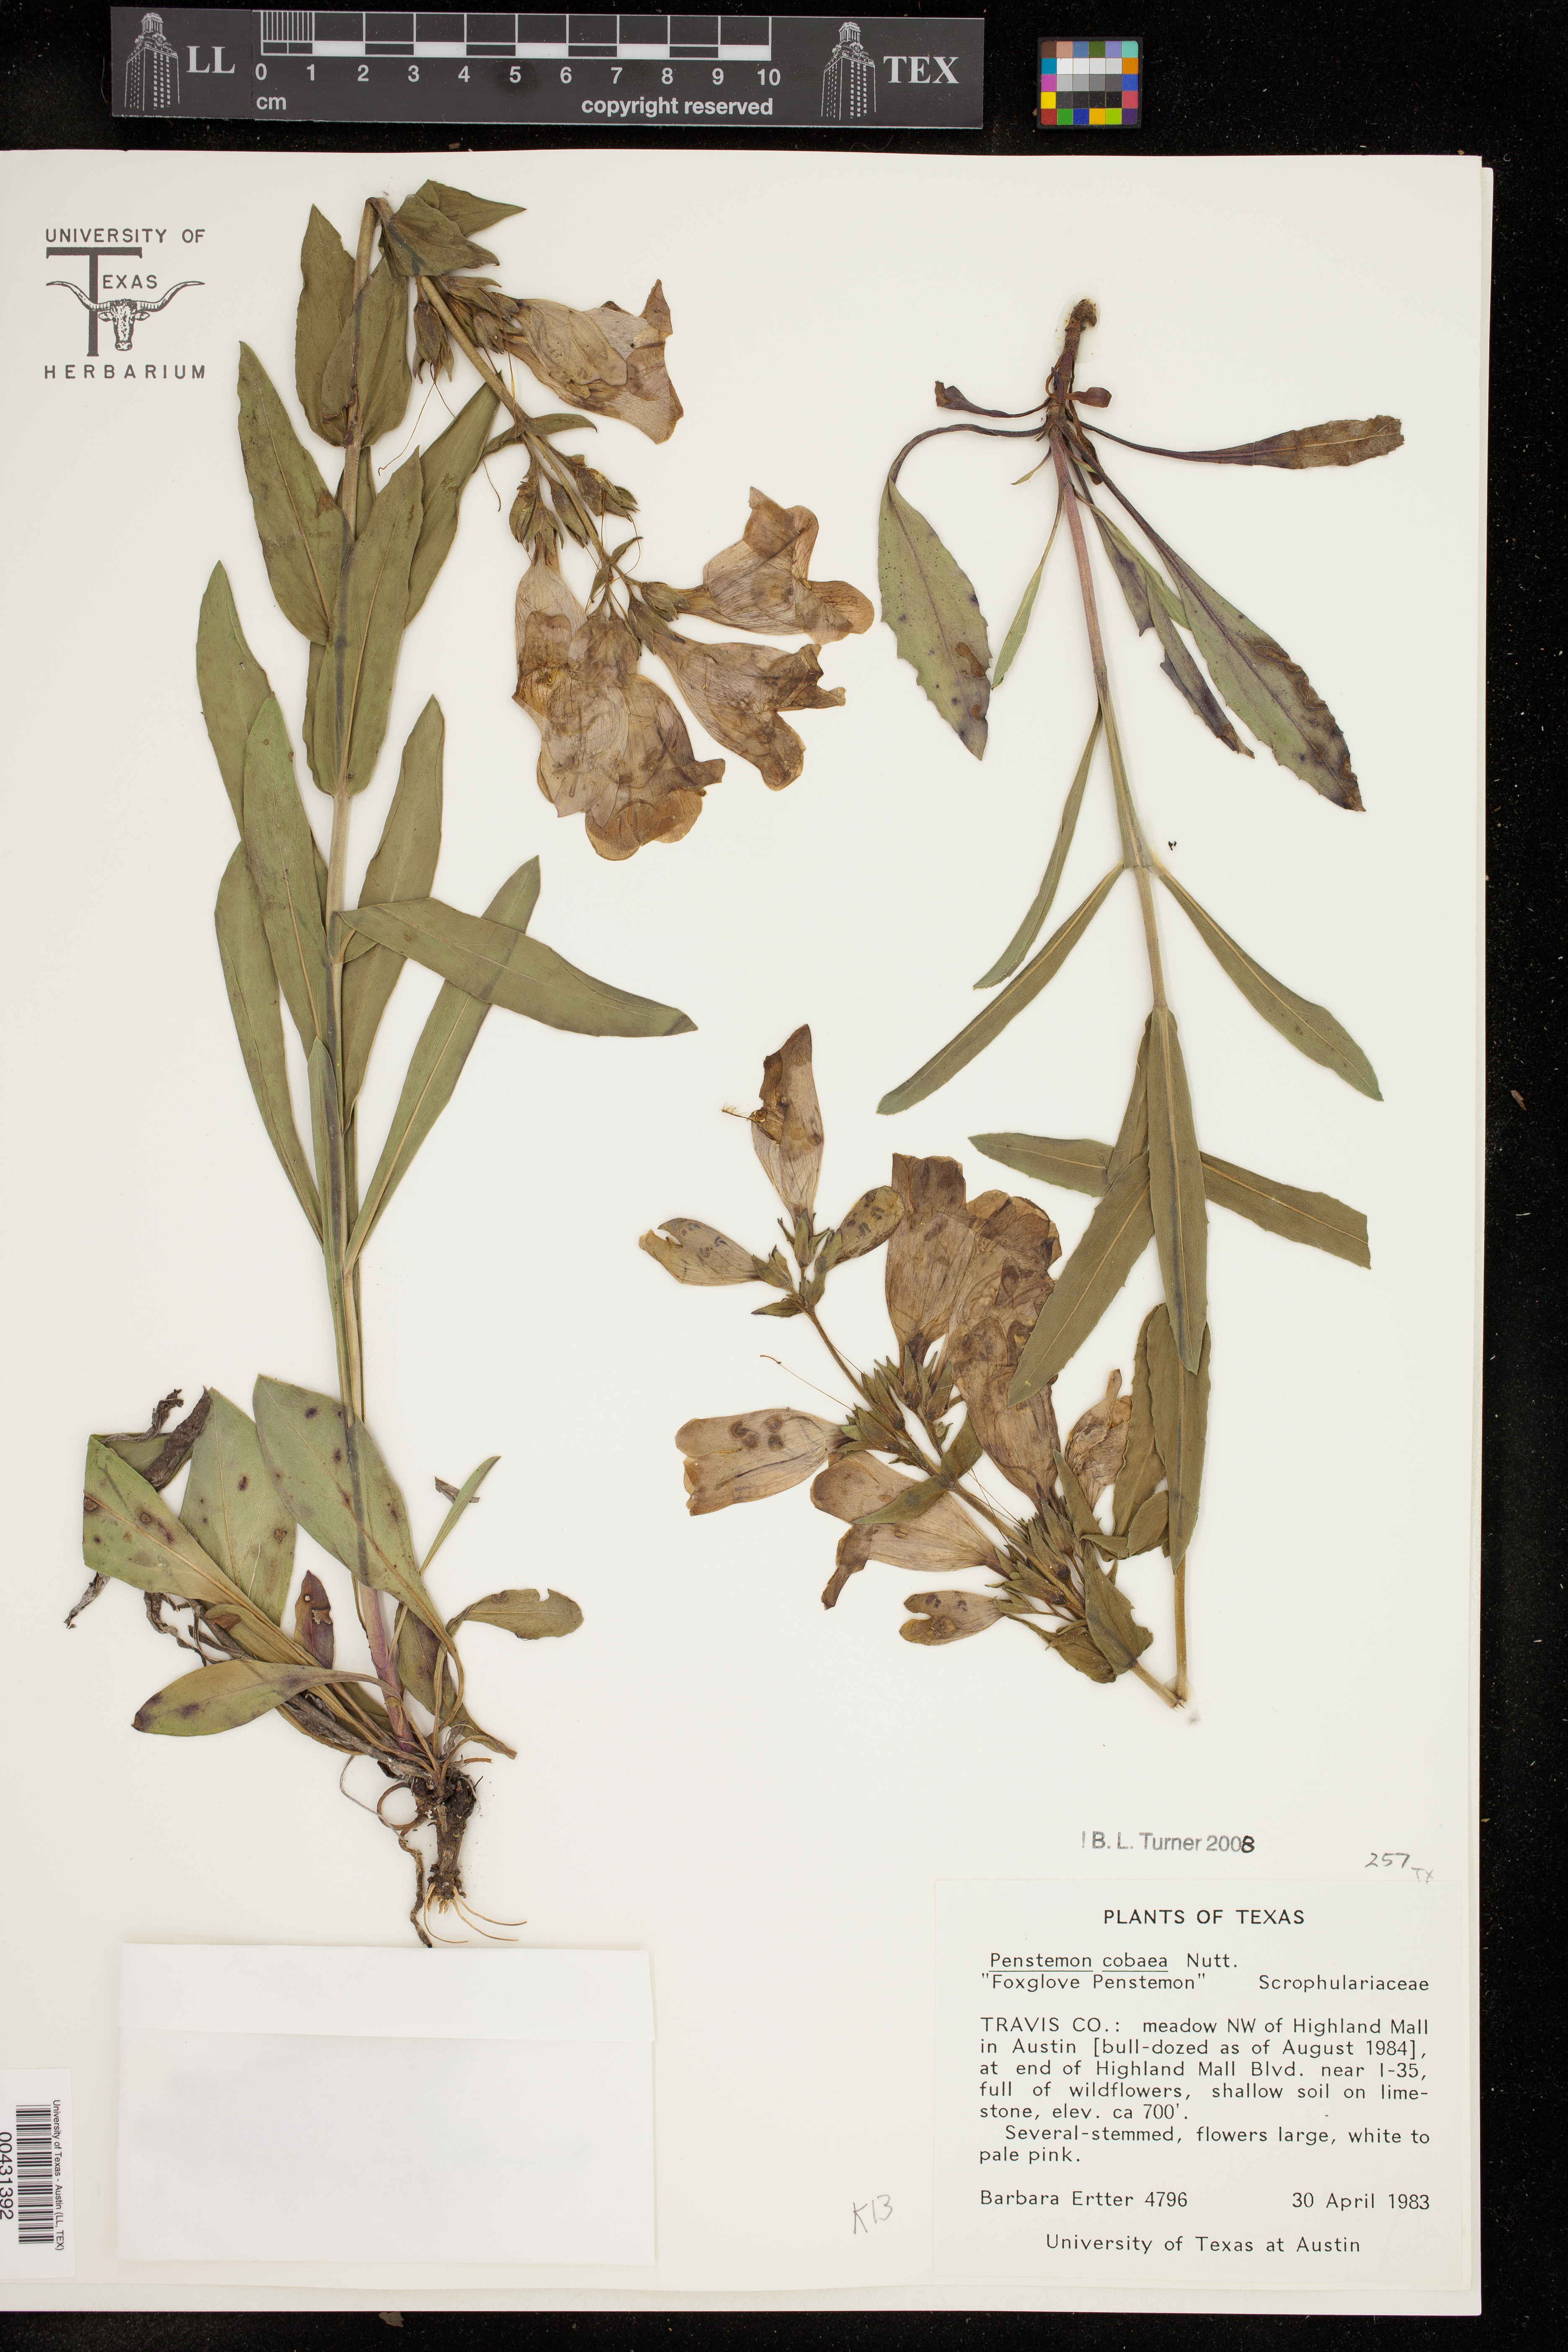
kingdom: Plantae
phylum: Tracheophyta
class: Magnoliopsida
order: Lamiales
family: Plantaginaceae
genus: Penstemon
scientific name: Penstemon cobaea
